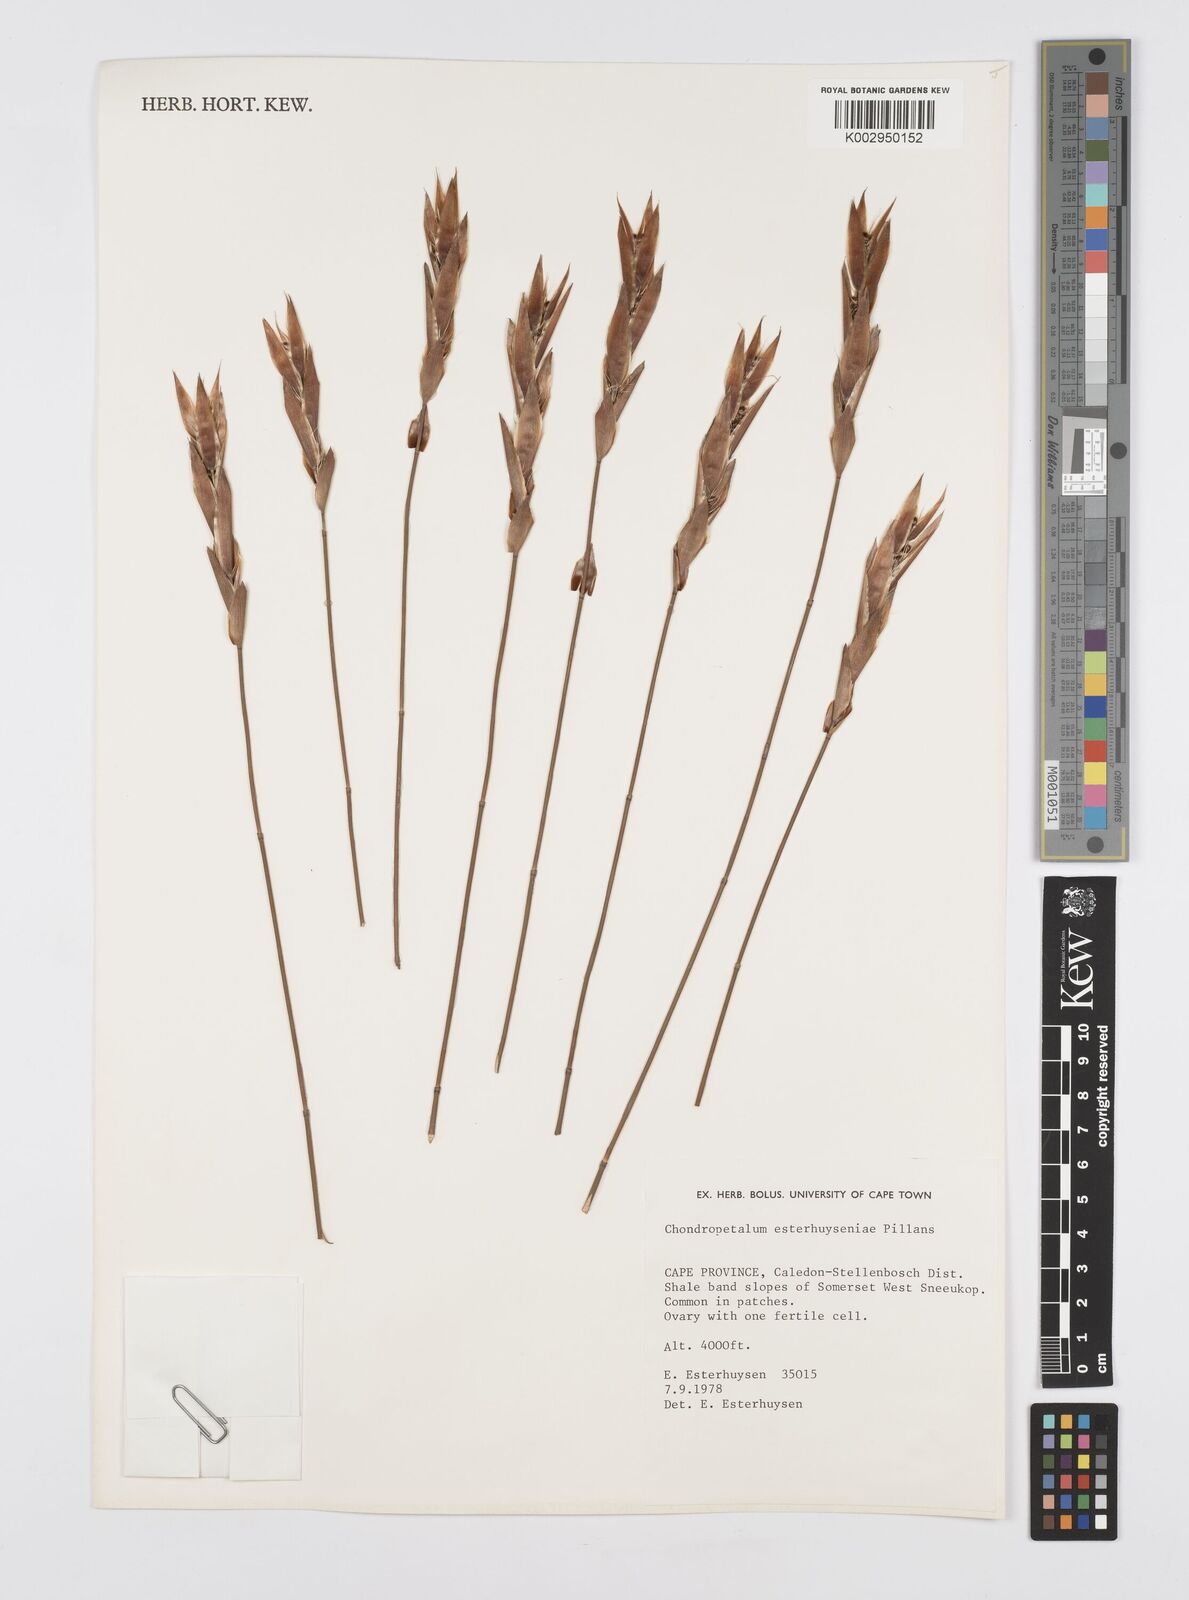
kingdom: Plantae
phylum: Tracheophyta
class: Liliopsida
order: Poales
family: Restionaceae
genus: Askidiosperma
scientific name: Askidiosperma esterhuyseniae
